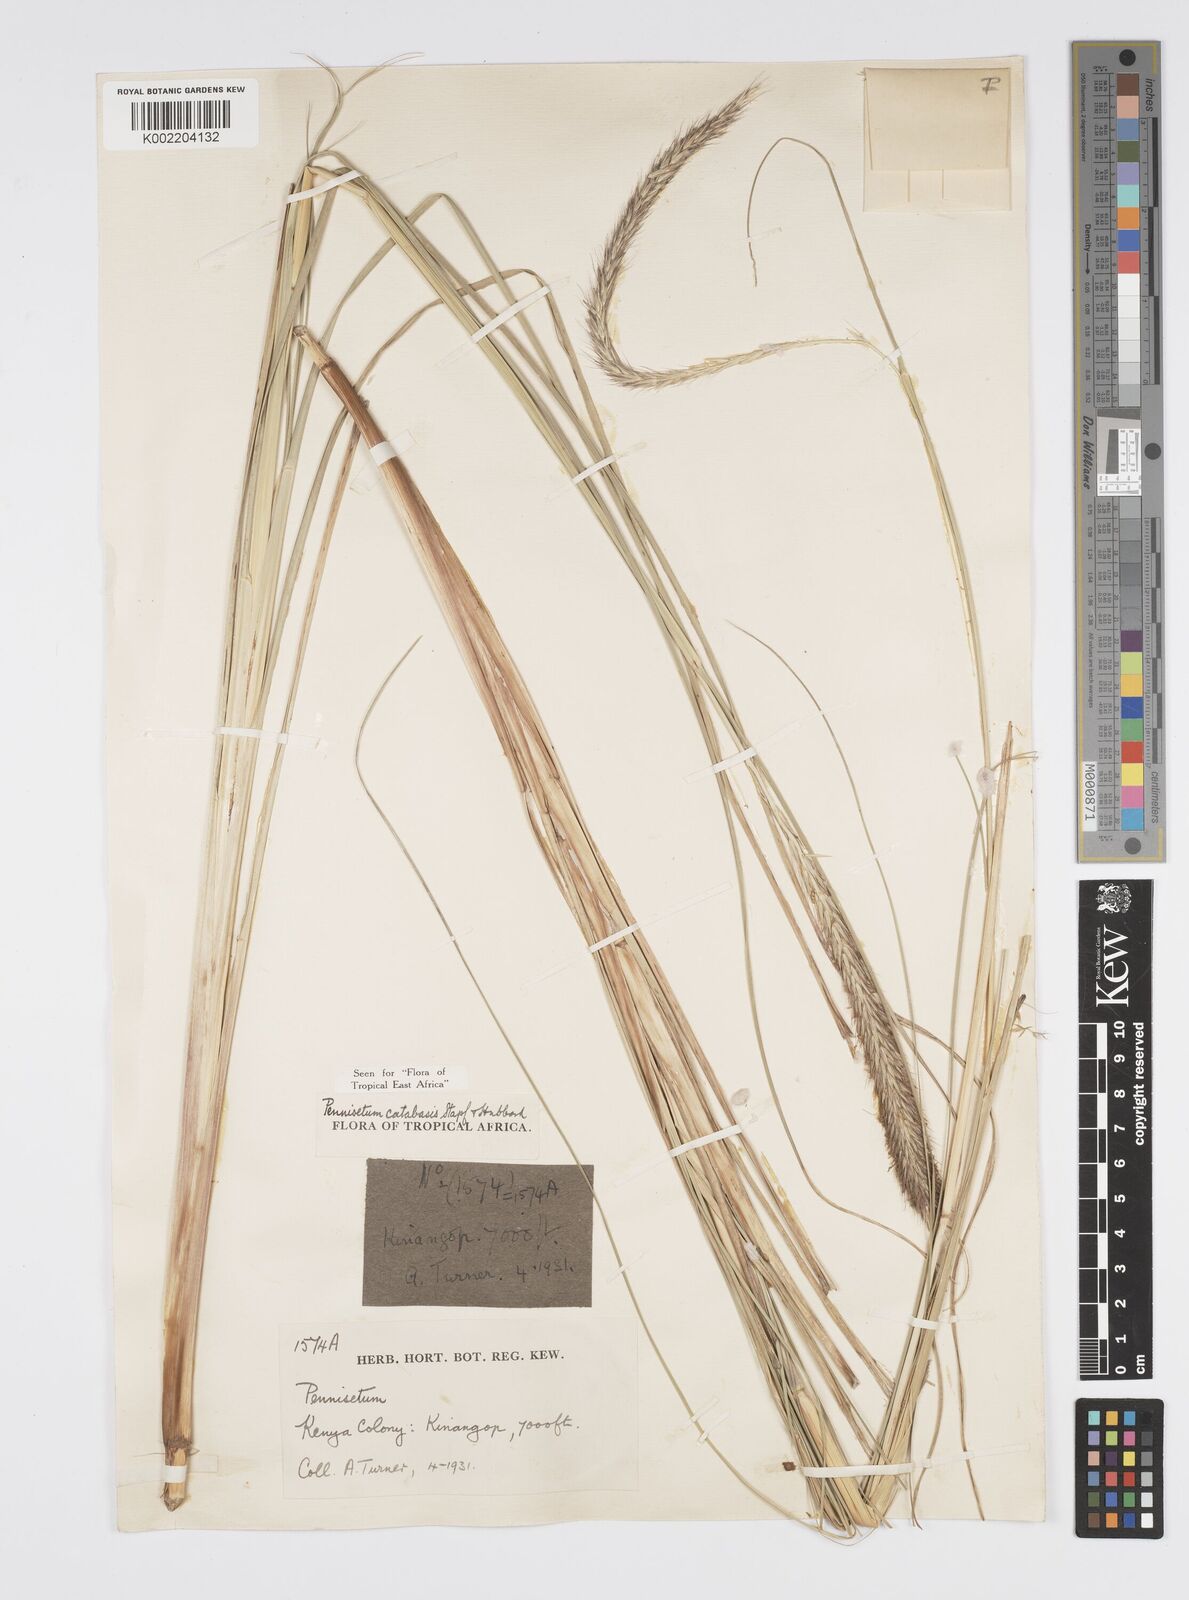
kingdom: Plantae
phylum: Tracheophyta
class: Liliopsida
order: Poales
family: Poaceae
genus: Cenchrus
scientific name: Cenchrus Pennisetum spec
